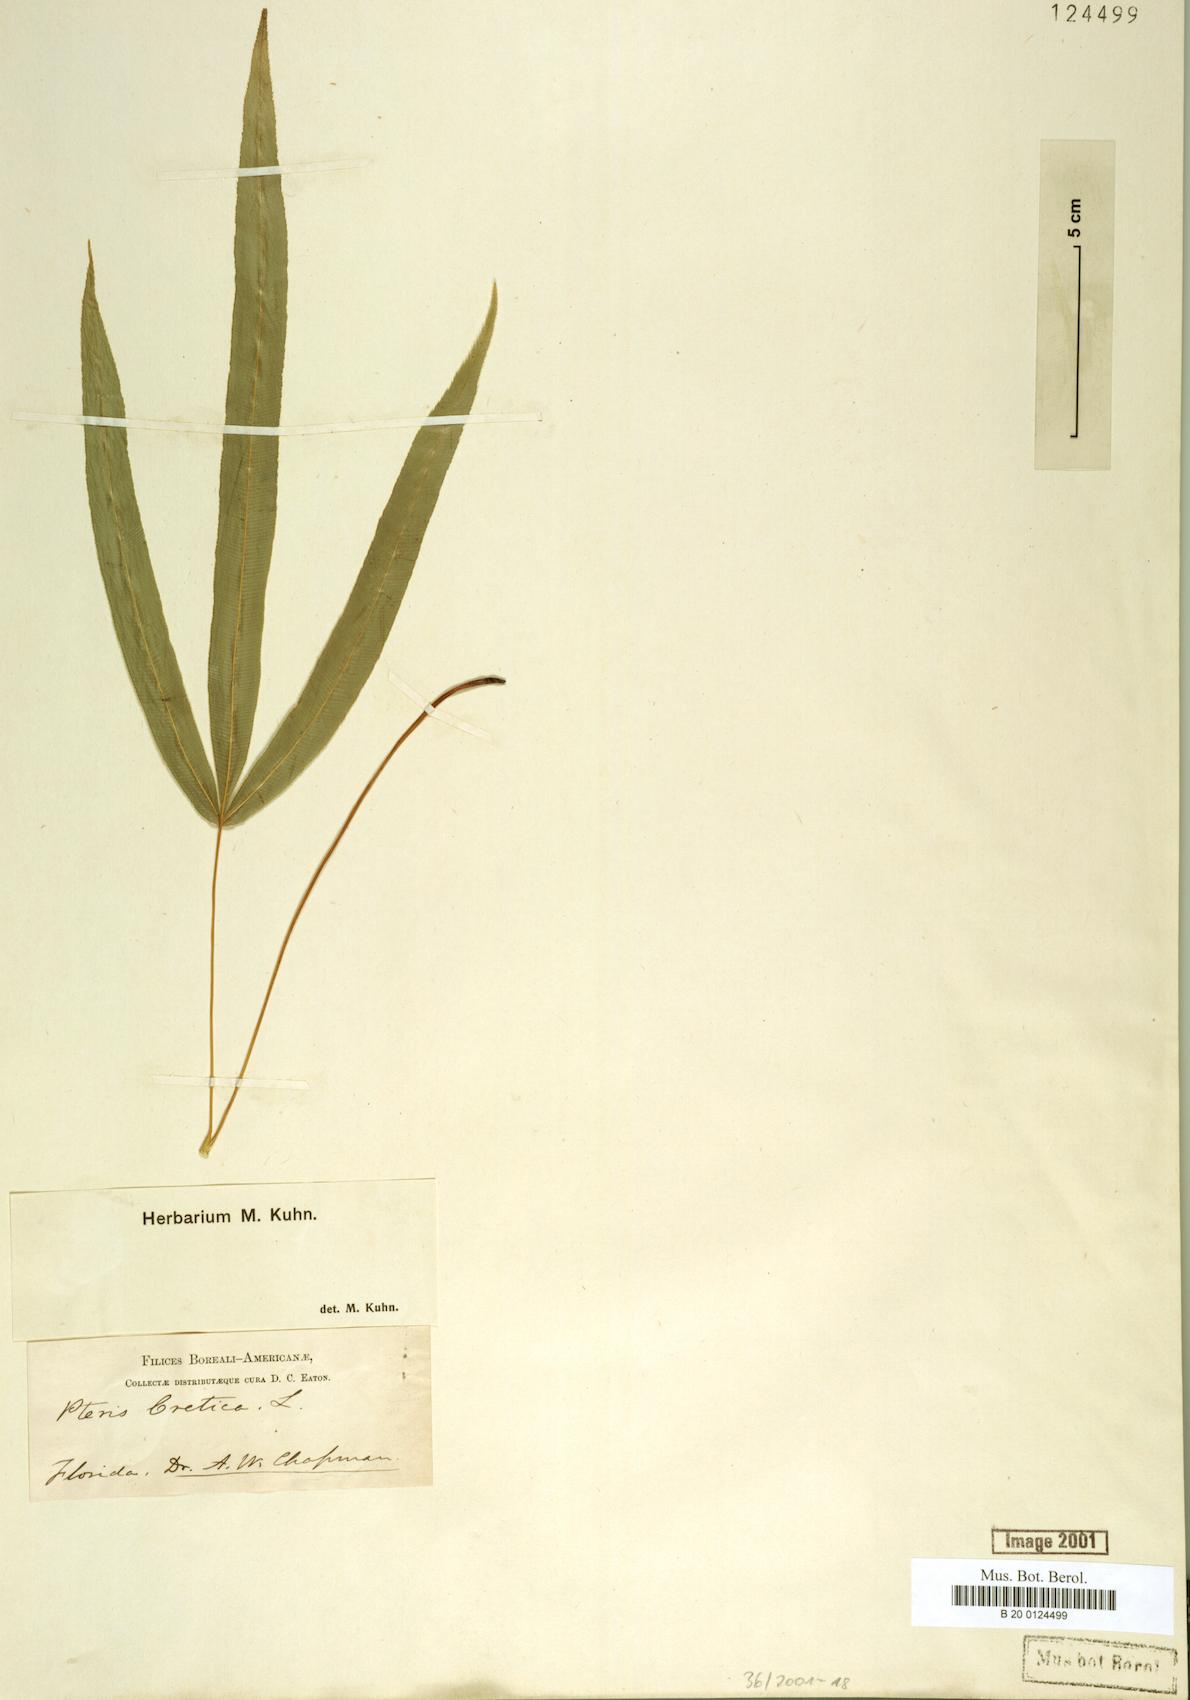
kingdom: Plantae
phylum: Tracheophyta
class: Polypodiopsida
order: Polypodiales
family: Pteridaceae
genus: Pteris
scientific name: Pteris cretica
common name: Ribbon fern
